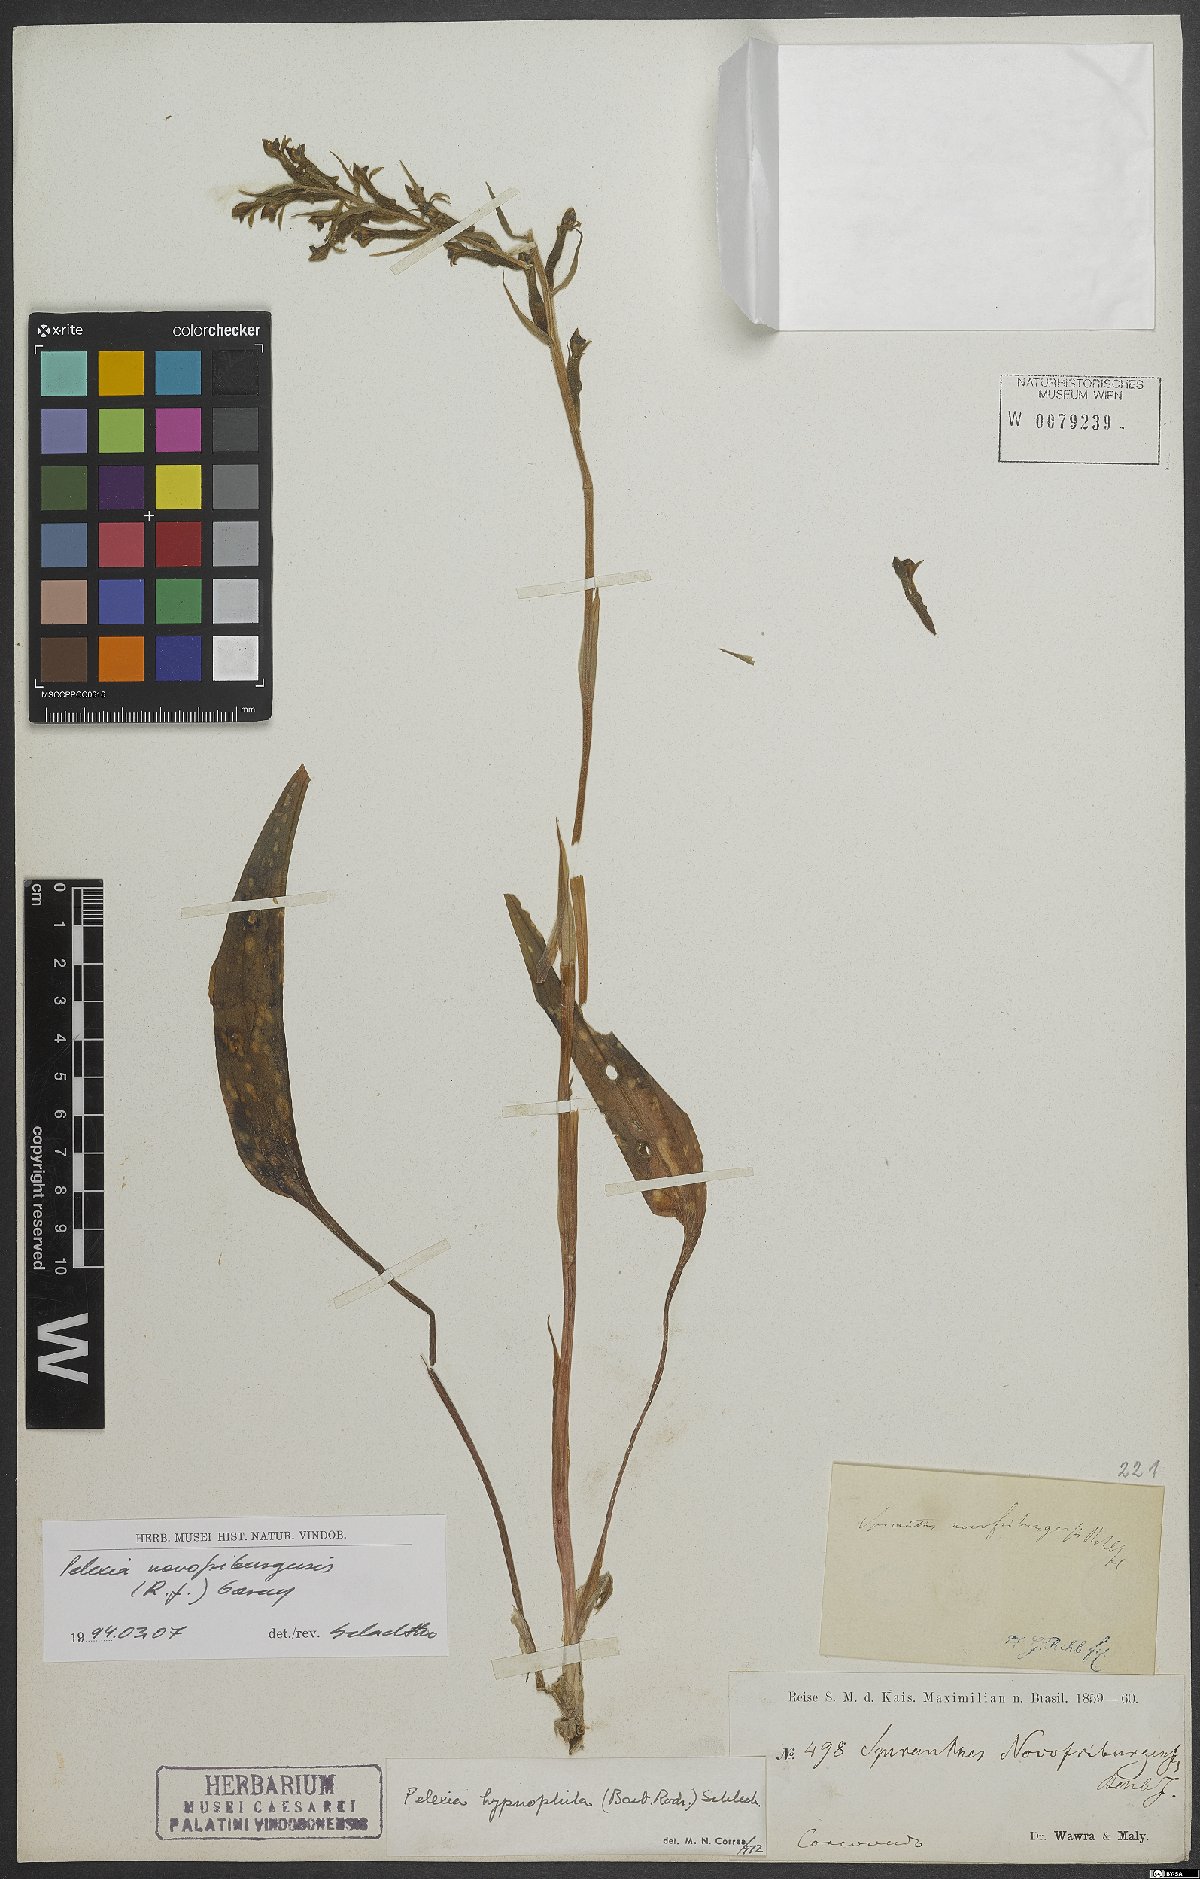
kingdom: Plantae
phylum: Tracheophyta
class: Liliopsida
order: Asparagales
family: Orchidaceae
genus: Pelexia
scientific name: Pelexia novofriburgensis
